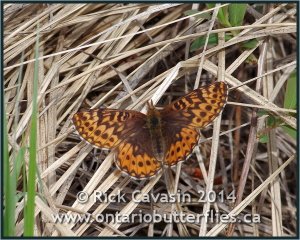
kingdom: Animalia
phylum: Arthropoda
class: Insecta
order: Lepidoptera
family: Nymphalidae
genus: Boloria
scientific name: Boloria freija
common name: Freija Fritillary
